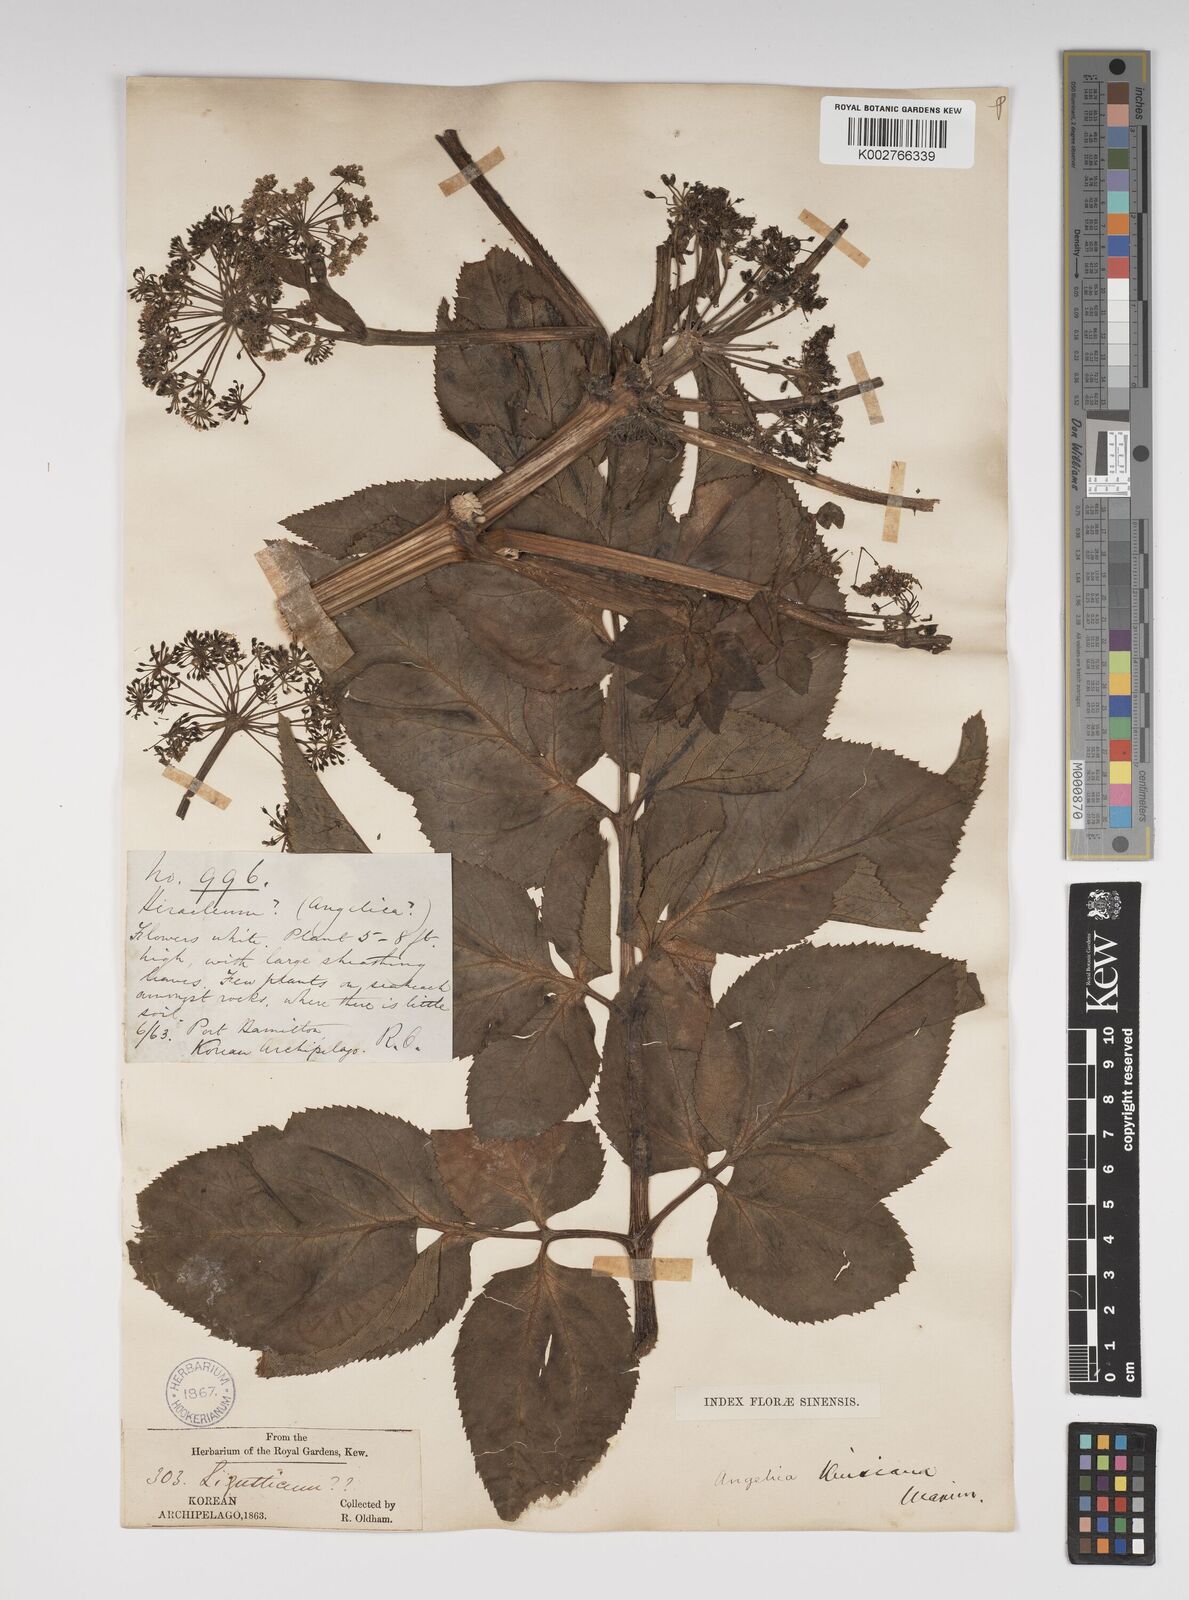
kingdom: Plantae
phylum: Tracheophyta
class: Magnoliopsida
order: Apiales
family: Apiaceae
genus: Angelica
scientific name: Angelica japonica
